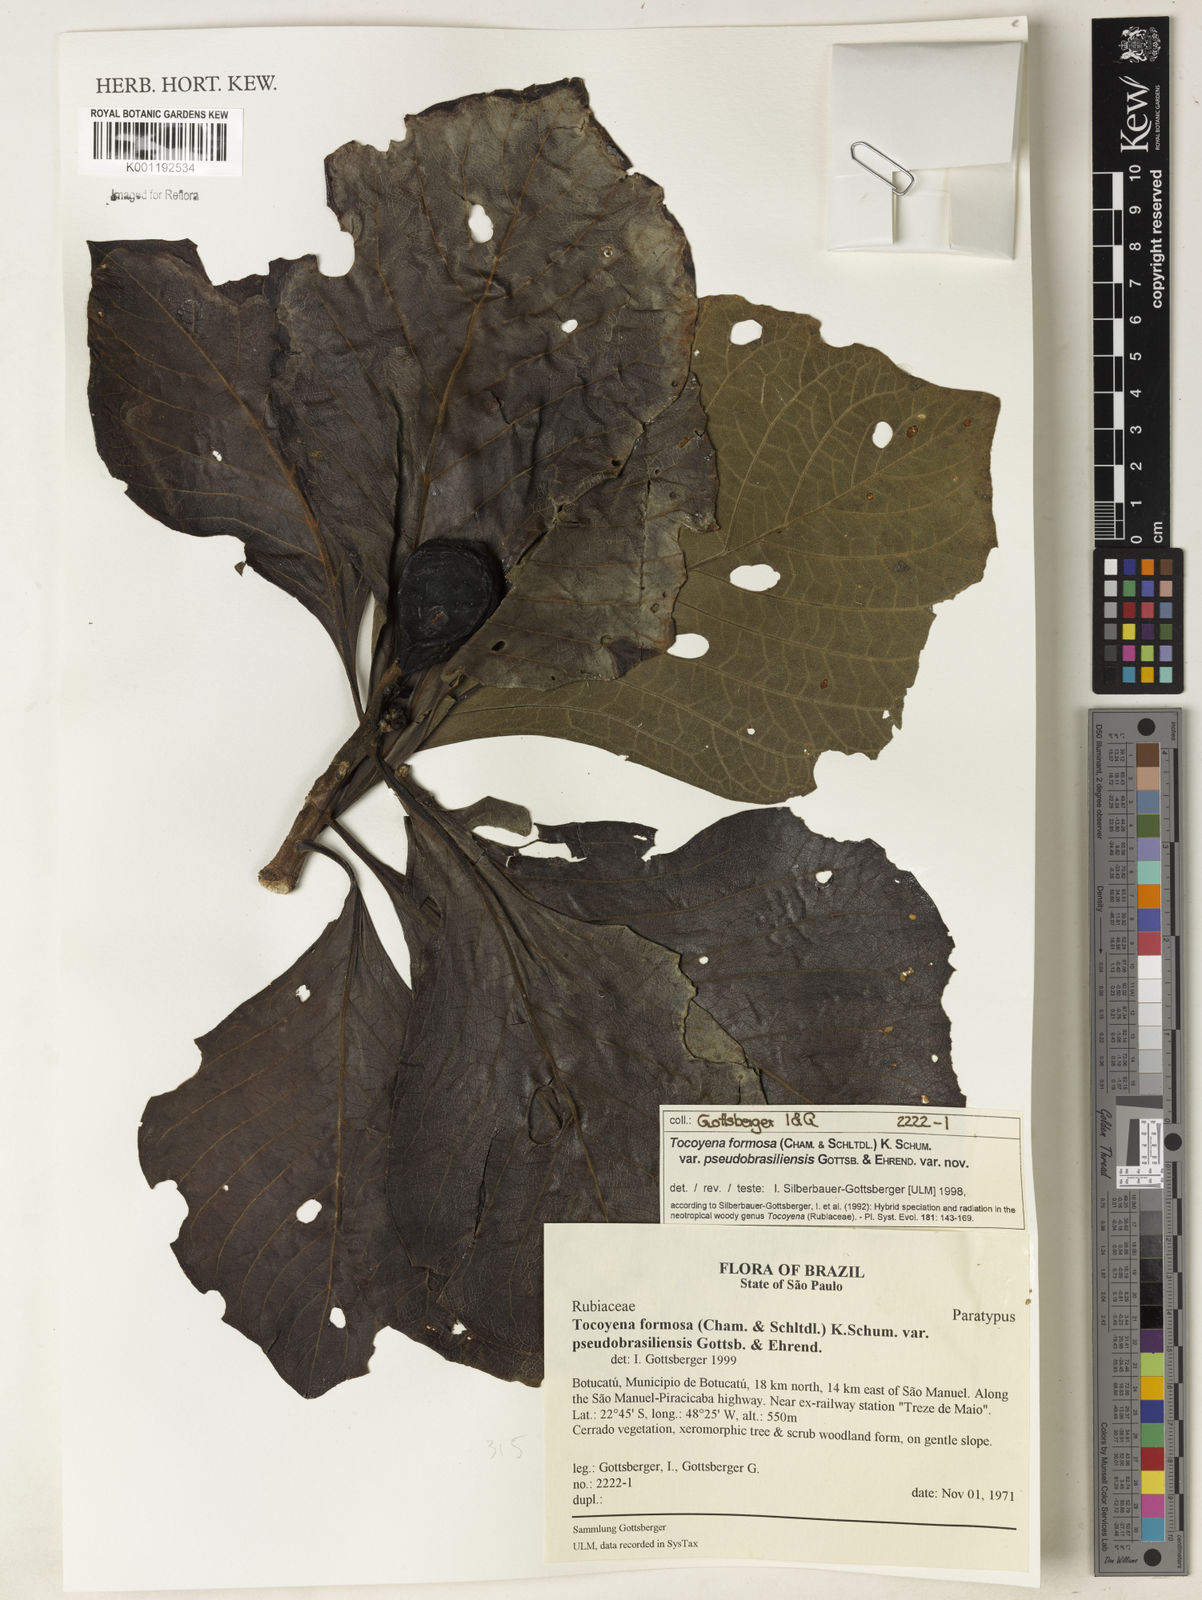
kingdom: Plantae
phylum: Tracheophyta
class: Magnoliopsida
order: Gentianales
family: Rubiaceae
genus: Tocoyena
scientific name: Tocoyena formosa
